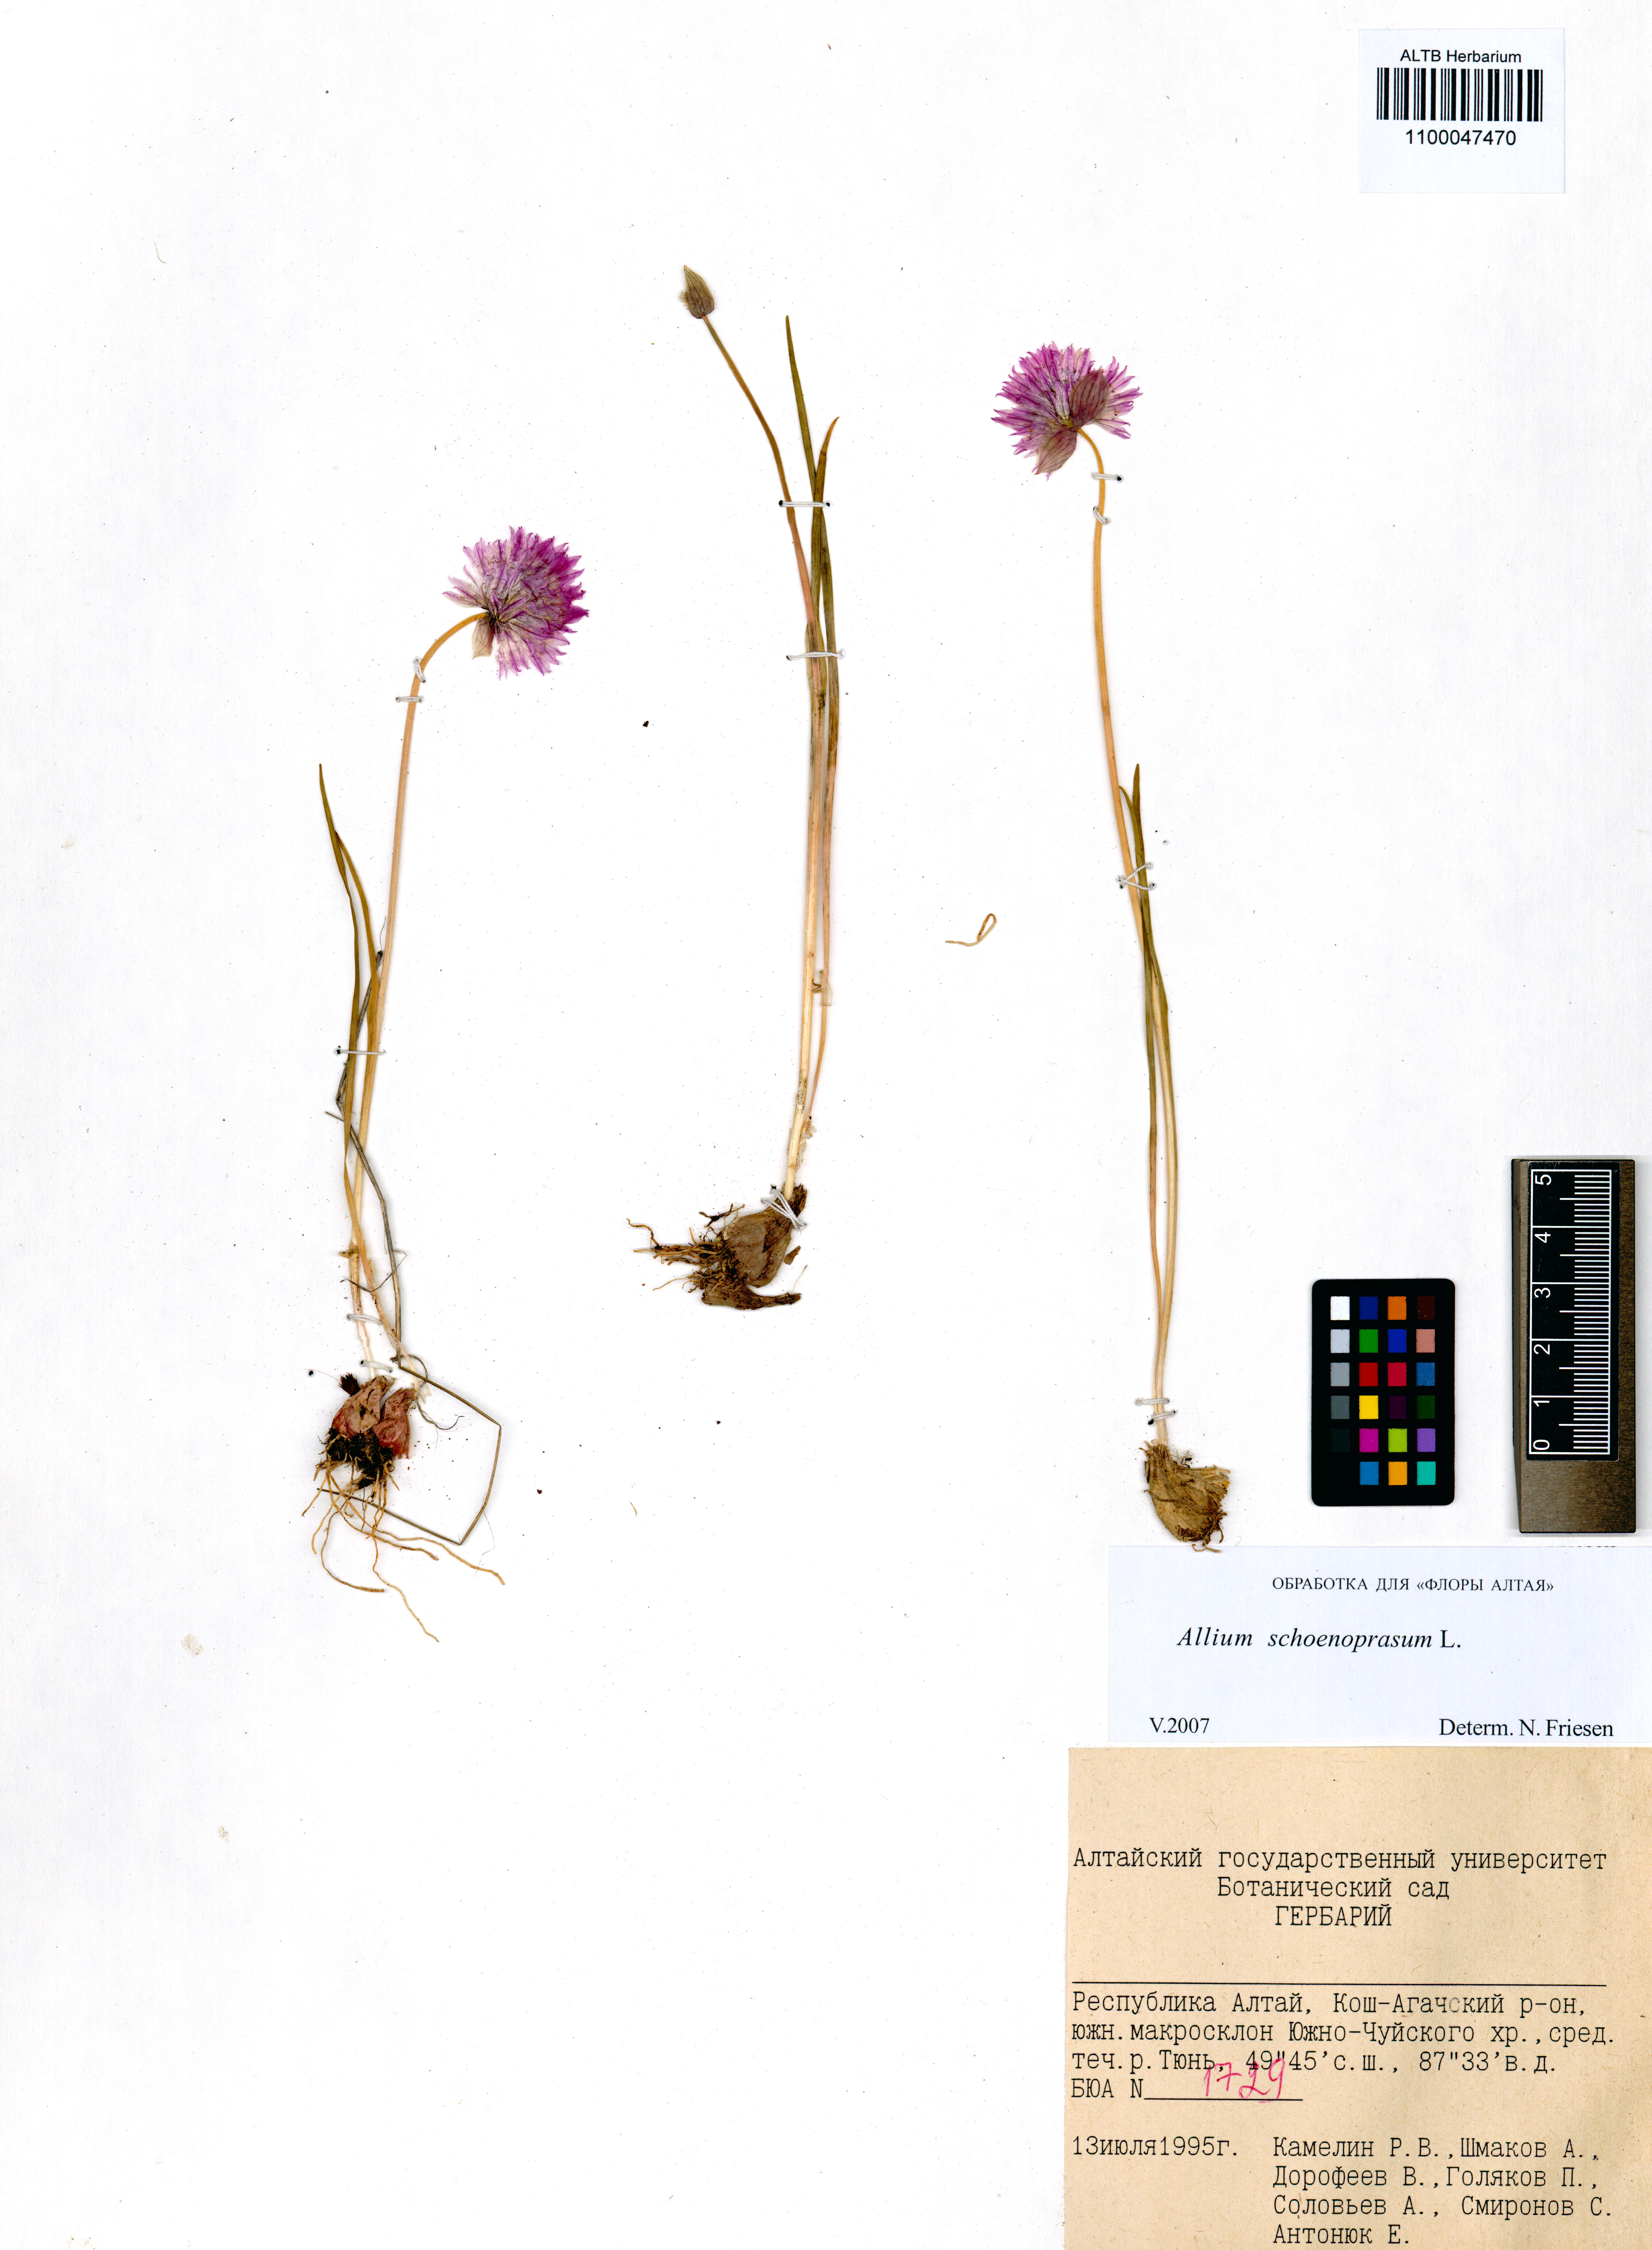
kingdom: Plantae
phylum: Tracheophyta
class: Liliopsida
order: Asparagales
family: Amaryllidaceae
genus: Allium
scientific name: Allium schoenoprasum
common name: Chives
